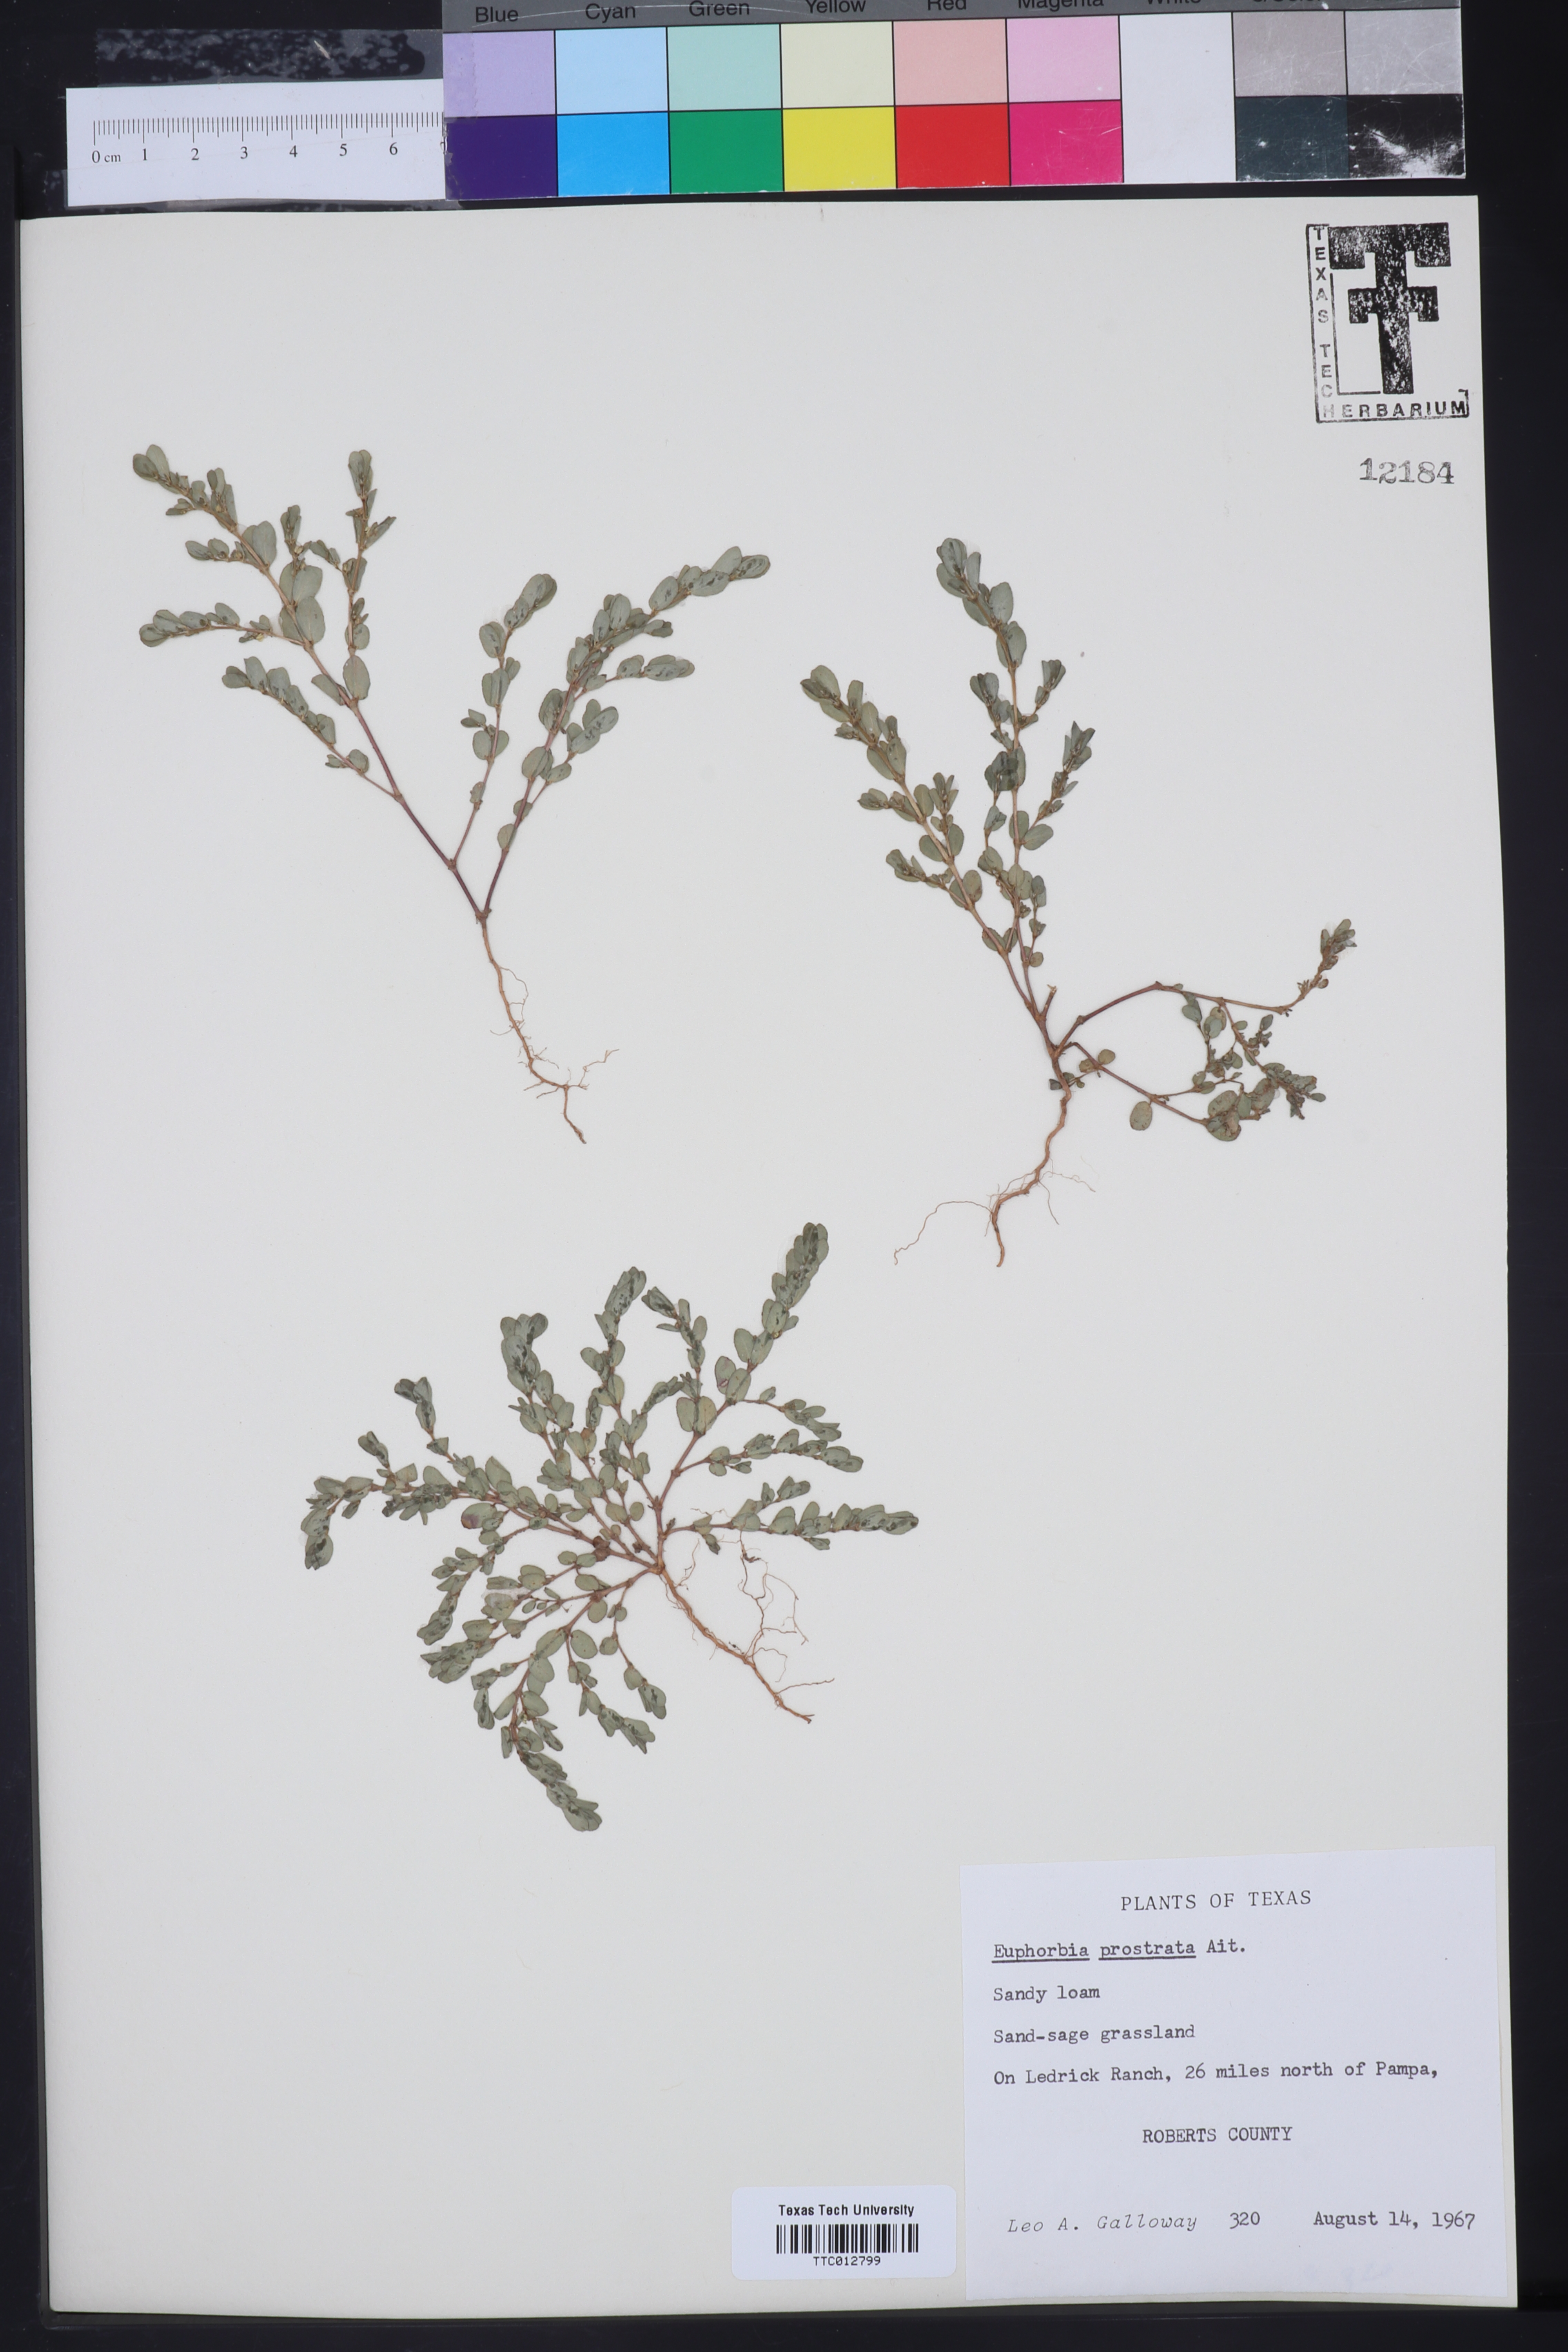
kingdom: Plantae
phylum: Tracheophyta
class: Magnoliopsida
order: Malpighiales
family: Euphorbiaceae
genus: Euphorbia
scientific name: Euphorbia prostrata
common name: Prostrate sandmat
